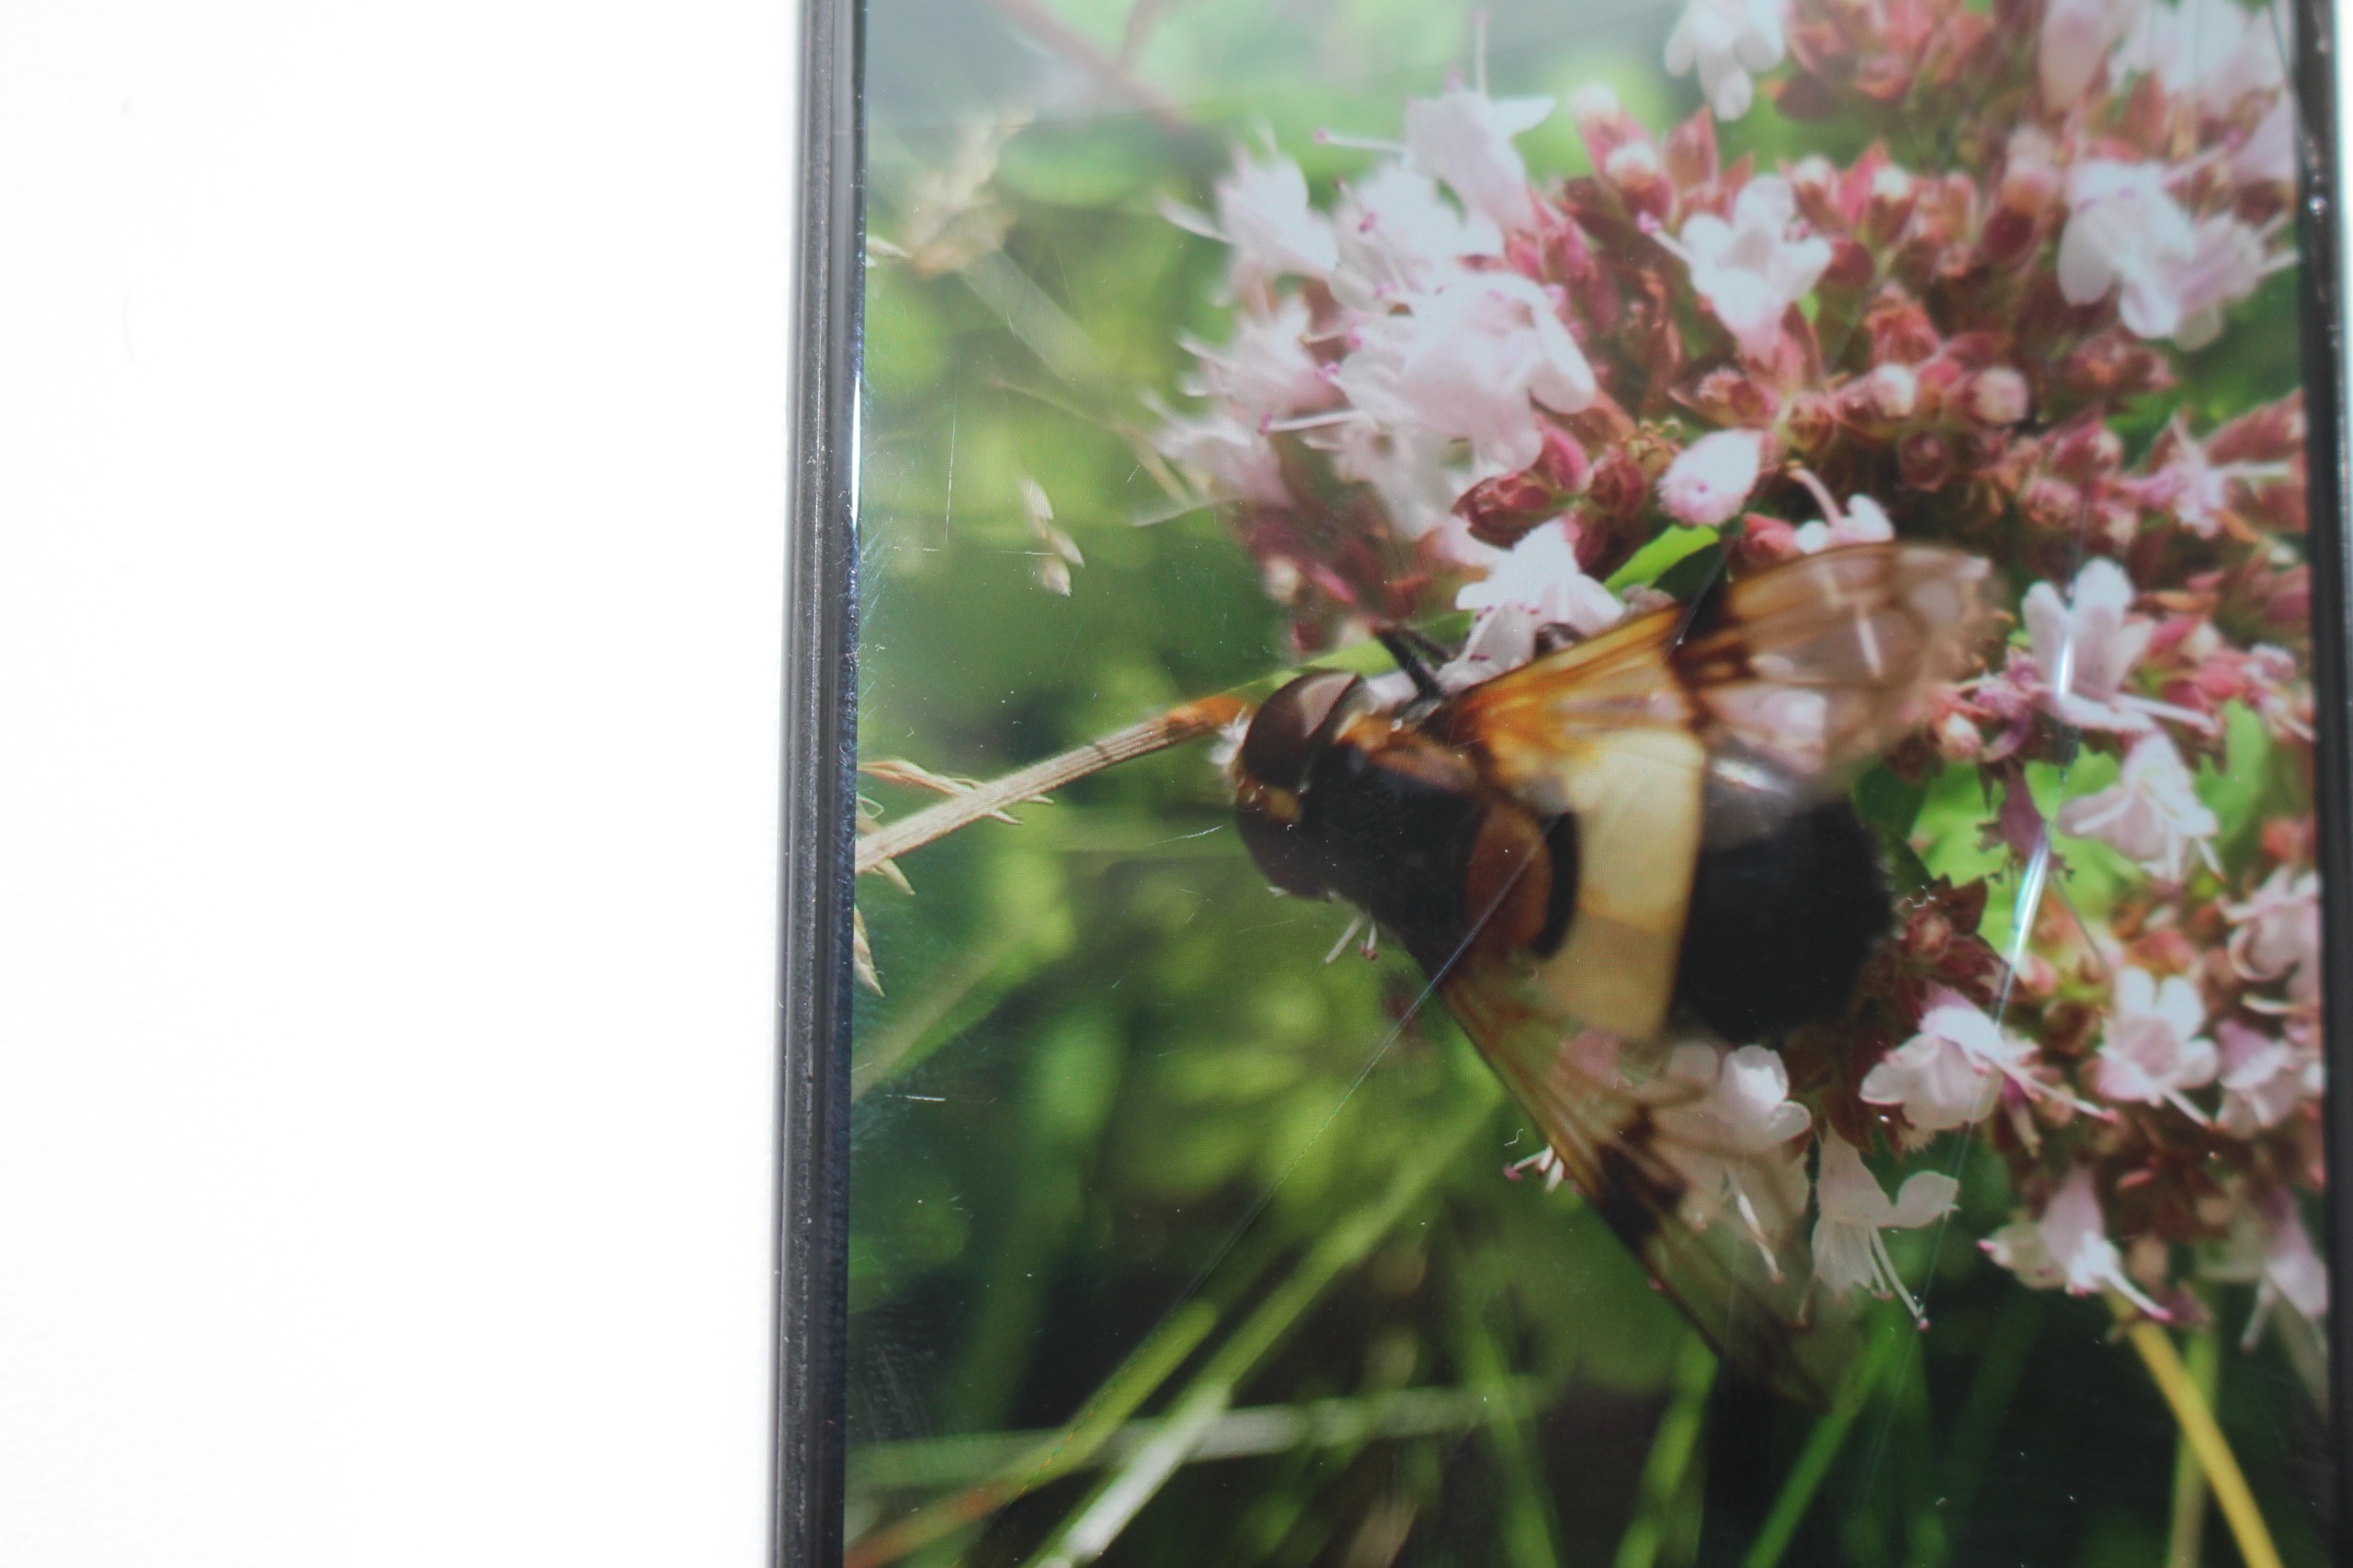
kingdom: Animalia
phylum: Arthropoda
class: Insecta
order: Diptera
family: Syrphidae
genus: Volucella
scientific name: Volucella pellucens
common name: Hvidbåndet humlesvirreflue
